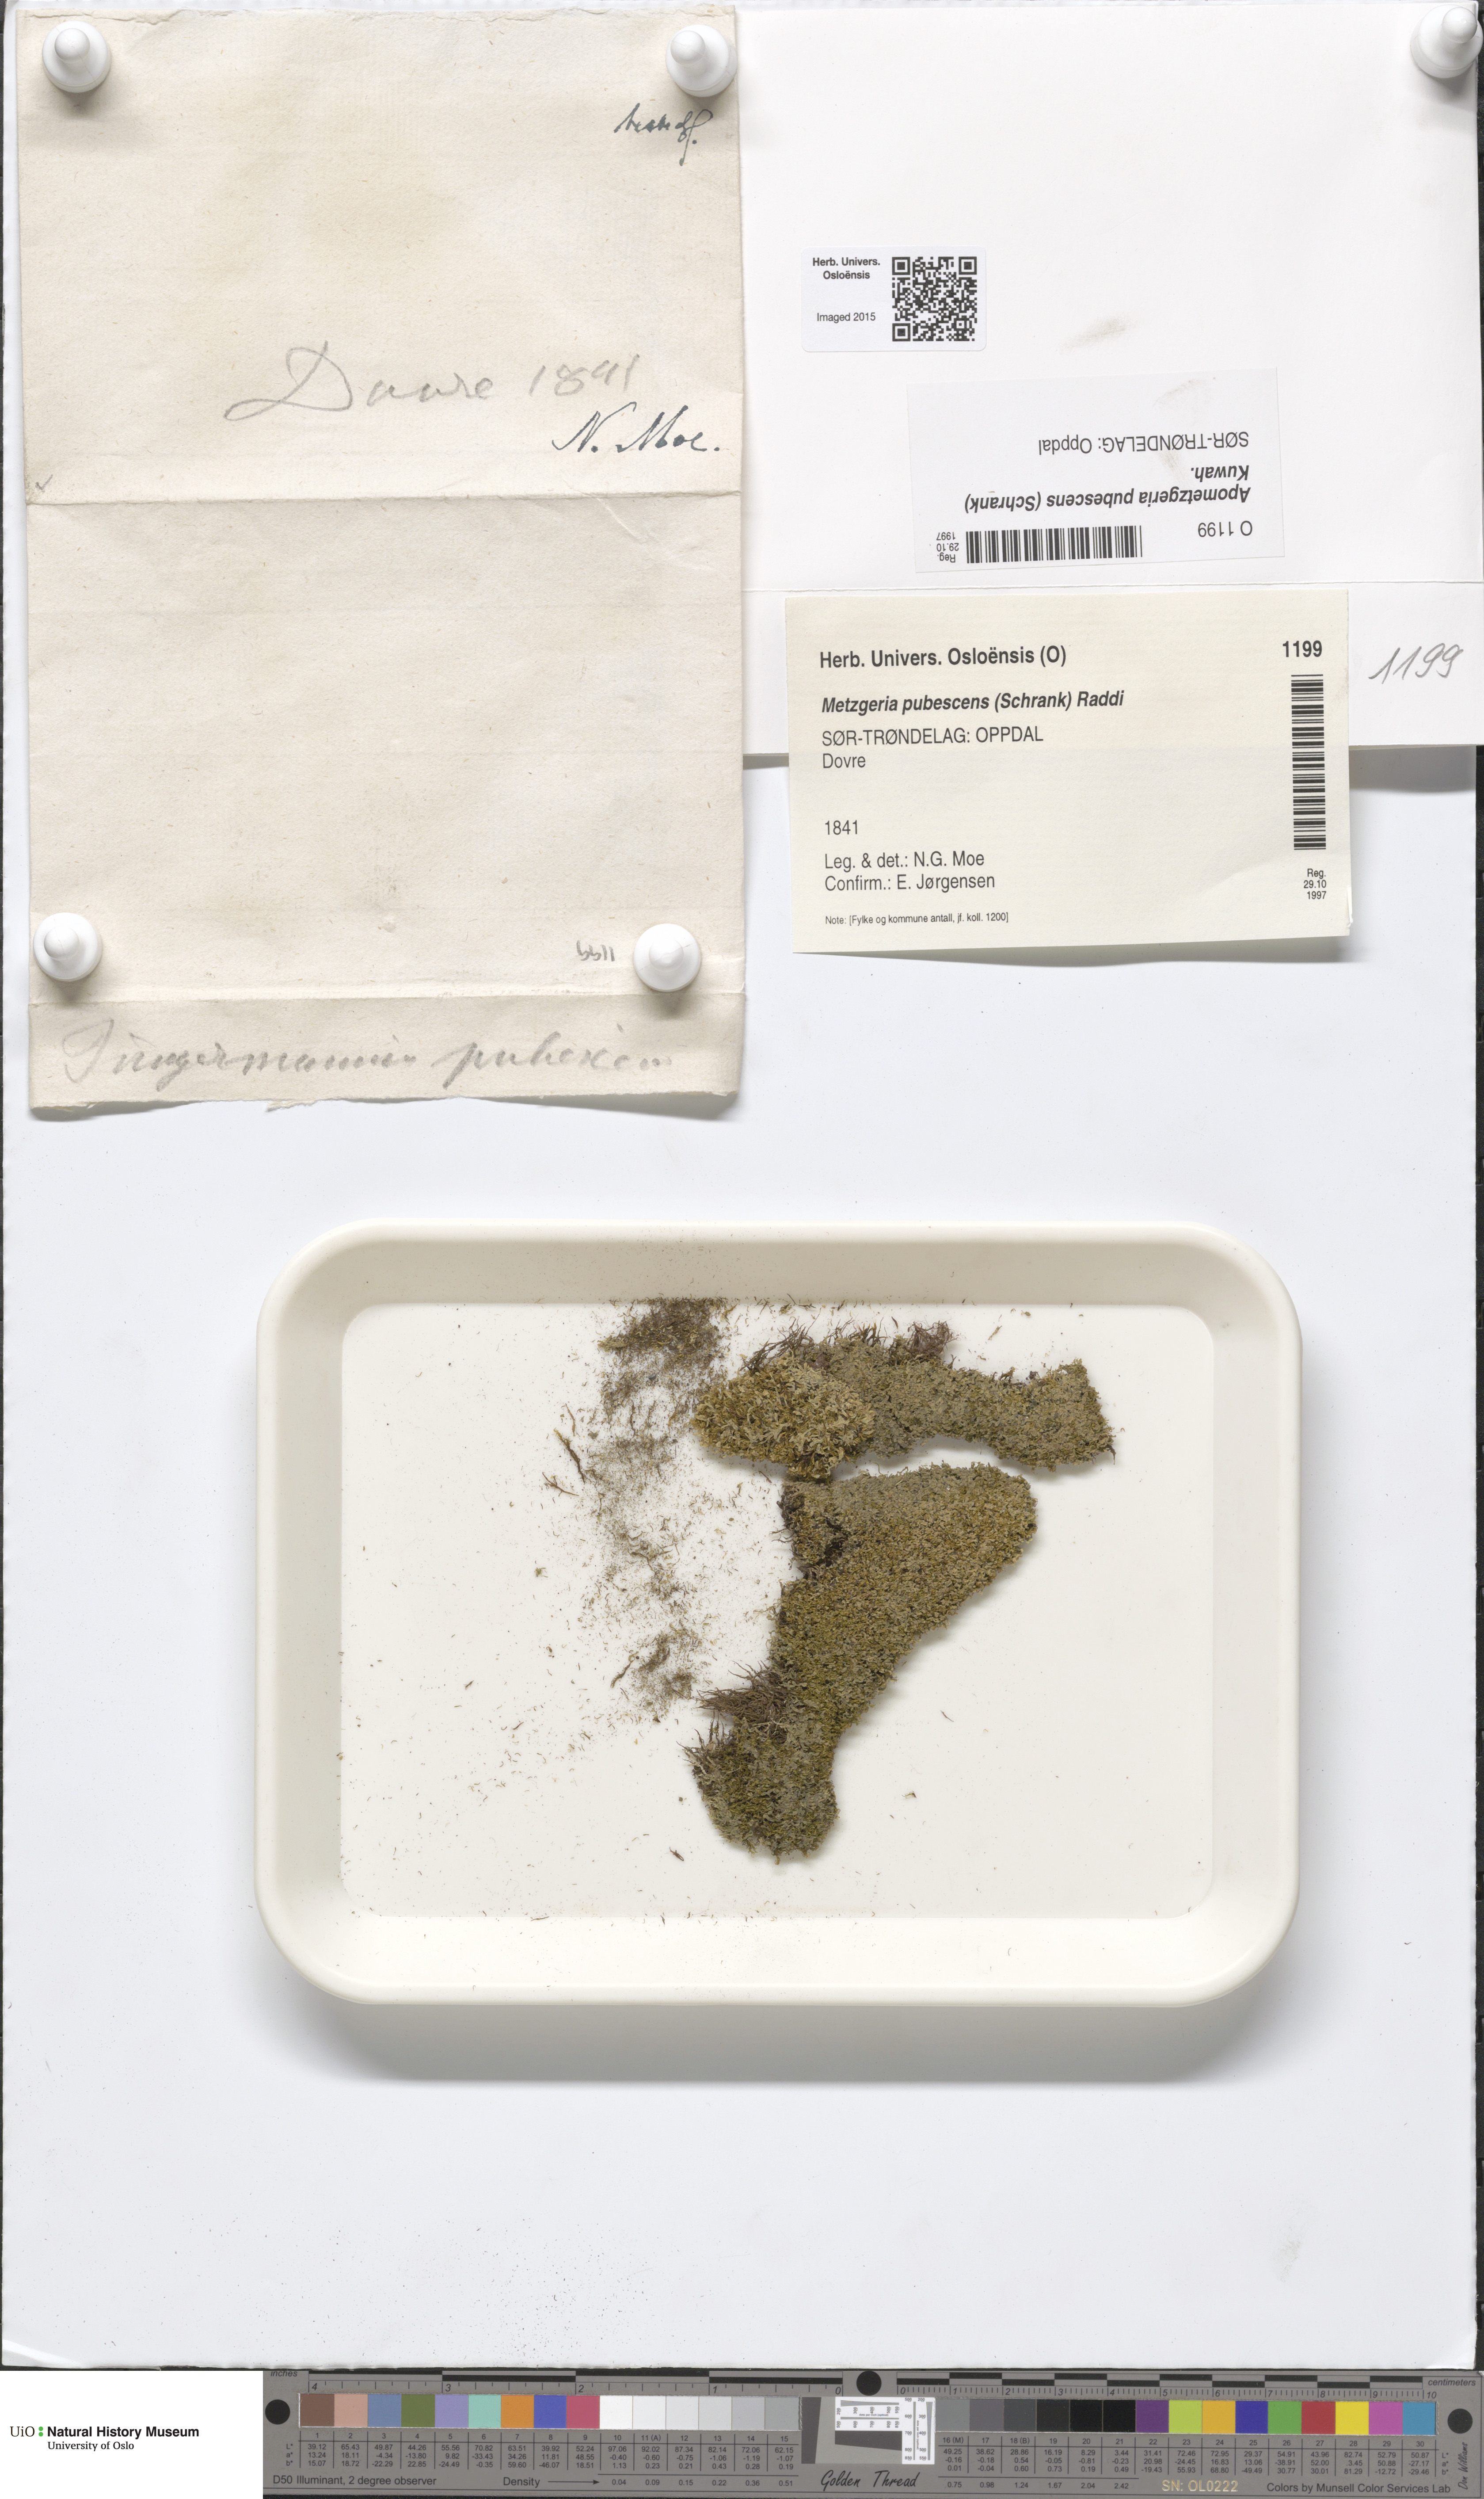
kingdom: Plantae
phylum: Marchantiophyta
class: Jungermanniopsida
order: Metzgeriales
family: Metzgeriaceae
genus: Metzgeria
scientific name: Metzgeria pubescens
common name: Downy veilwort
